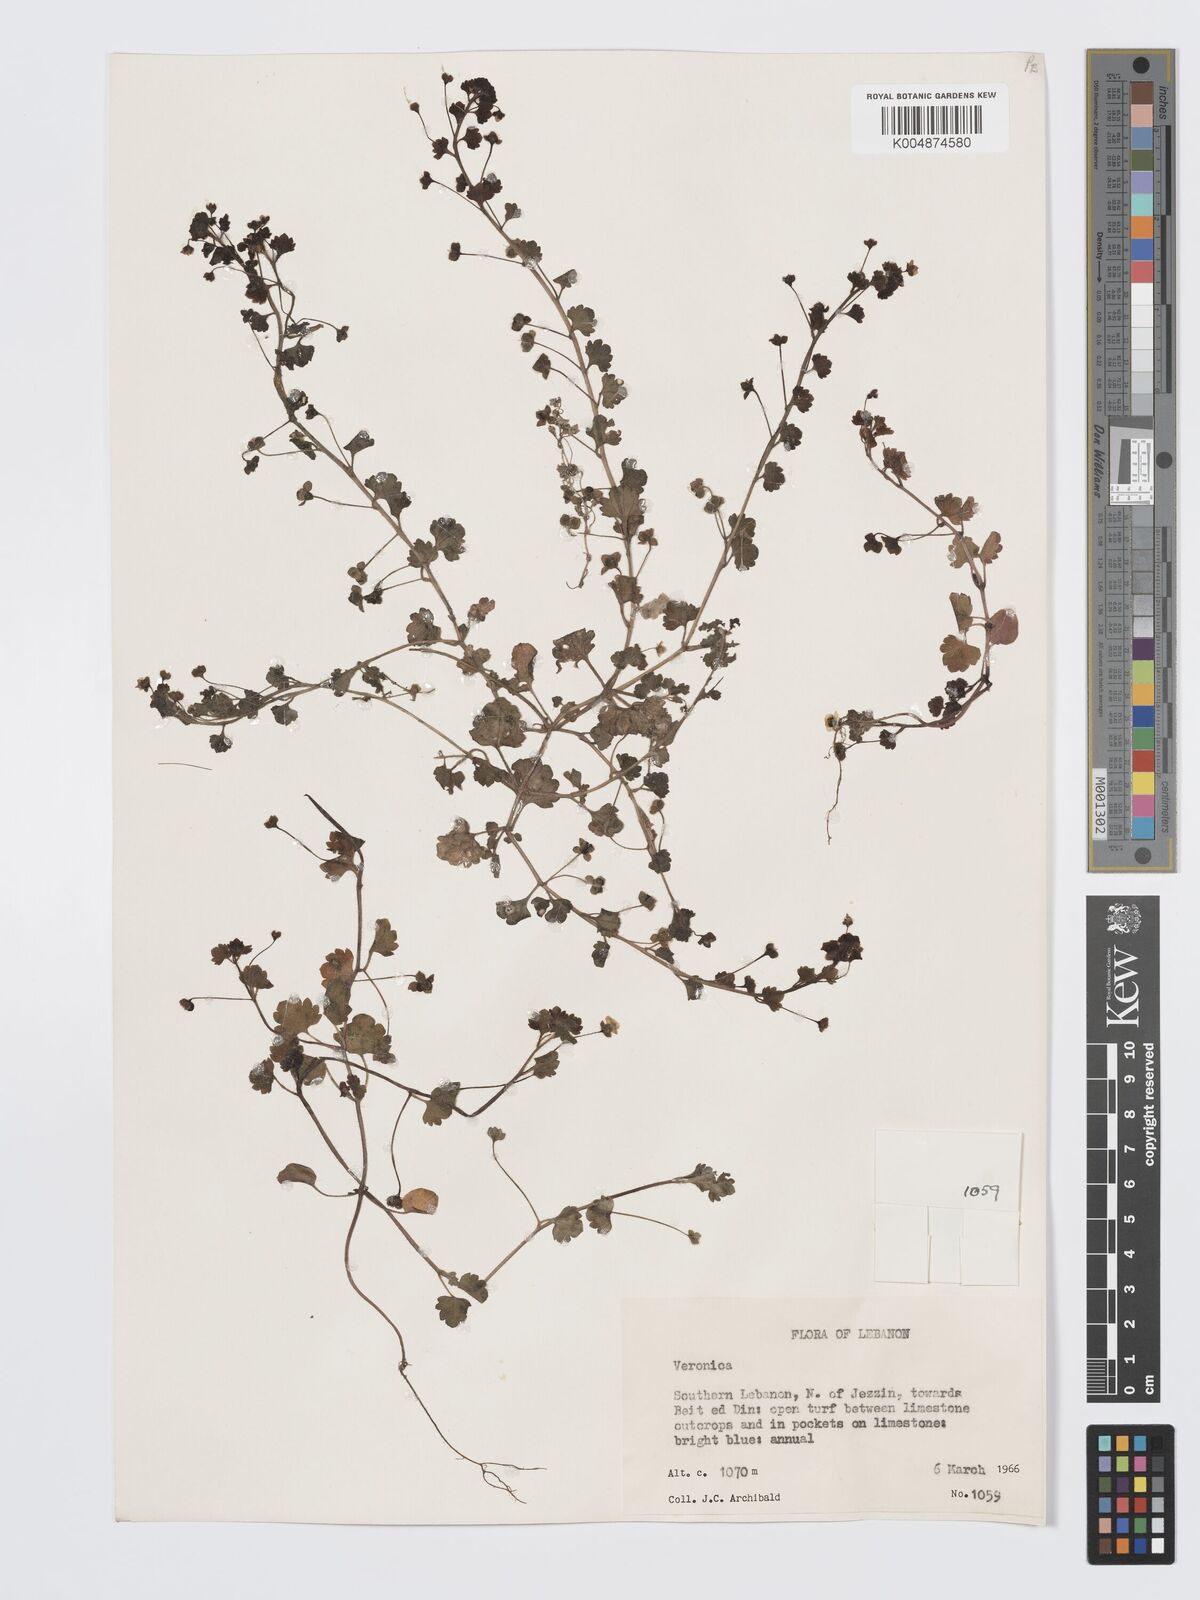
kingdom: Plantae
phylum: Tracheophyta
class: Magnoliopsida
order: Lamiales
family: Plantaginaceae
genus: Veronica
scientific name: Veronica
